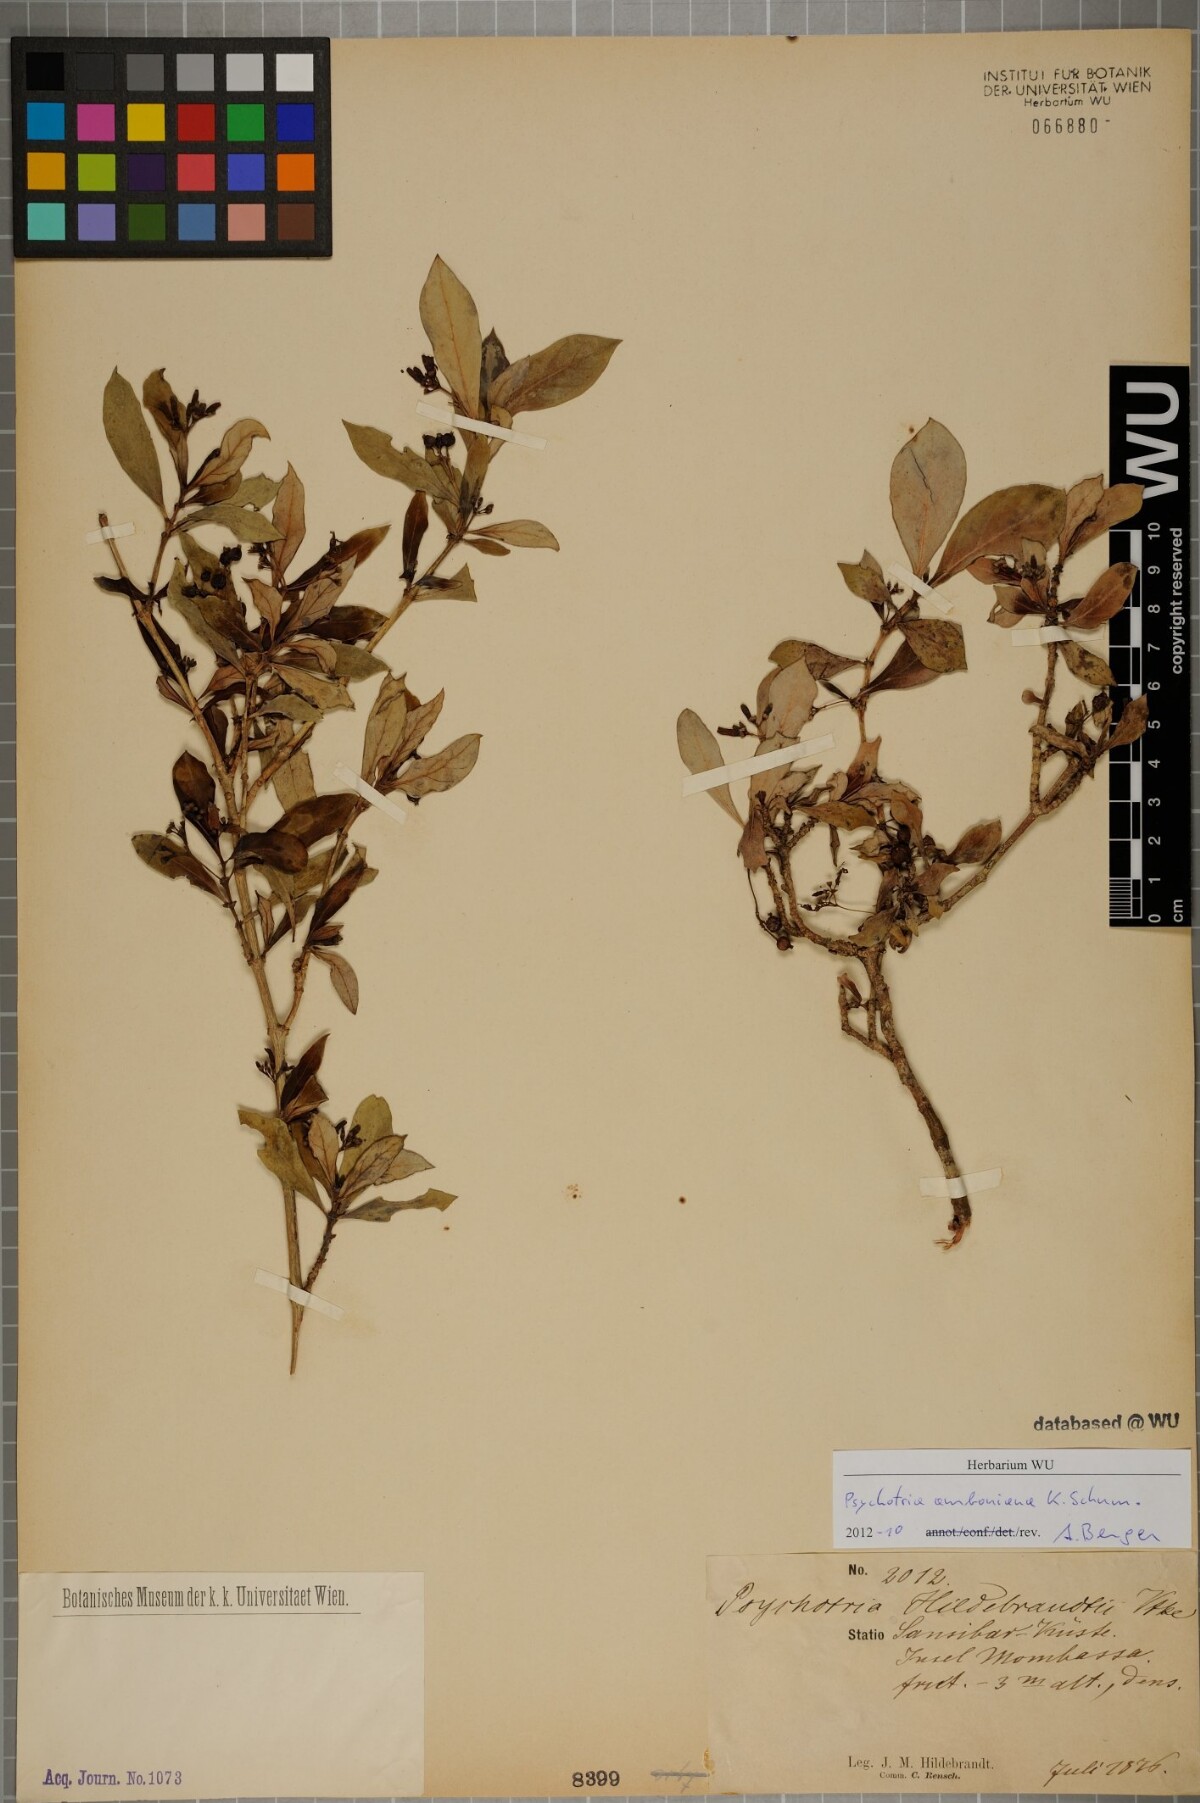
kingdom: Plantae
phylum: Tracheophyta
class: Magnoliopsida
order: Gentianales
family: Rubiaceae
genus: Psychotria
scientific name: Psychotria amboniana
